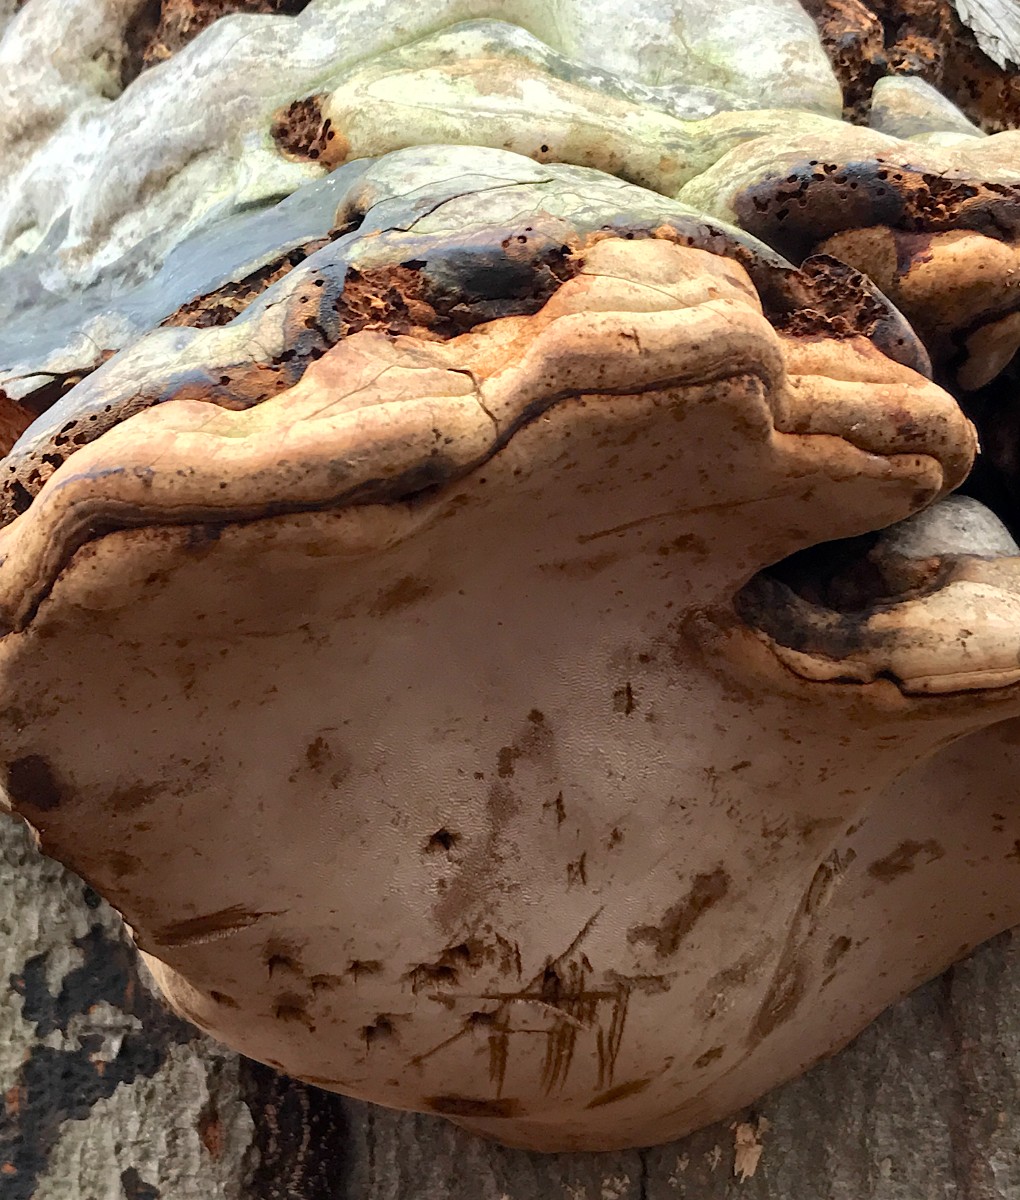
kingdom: Fungi
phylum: Basidiomycota
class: Agaricomycetes
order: Polyporales
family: Polyporaceae
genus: Fomes
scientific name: Fomes fomentarius
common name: tøndersvamp
